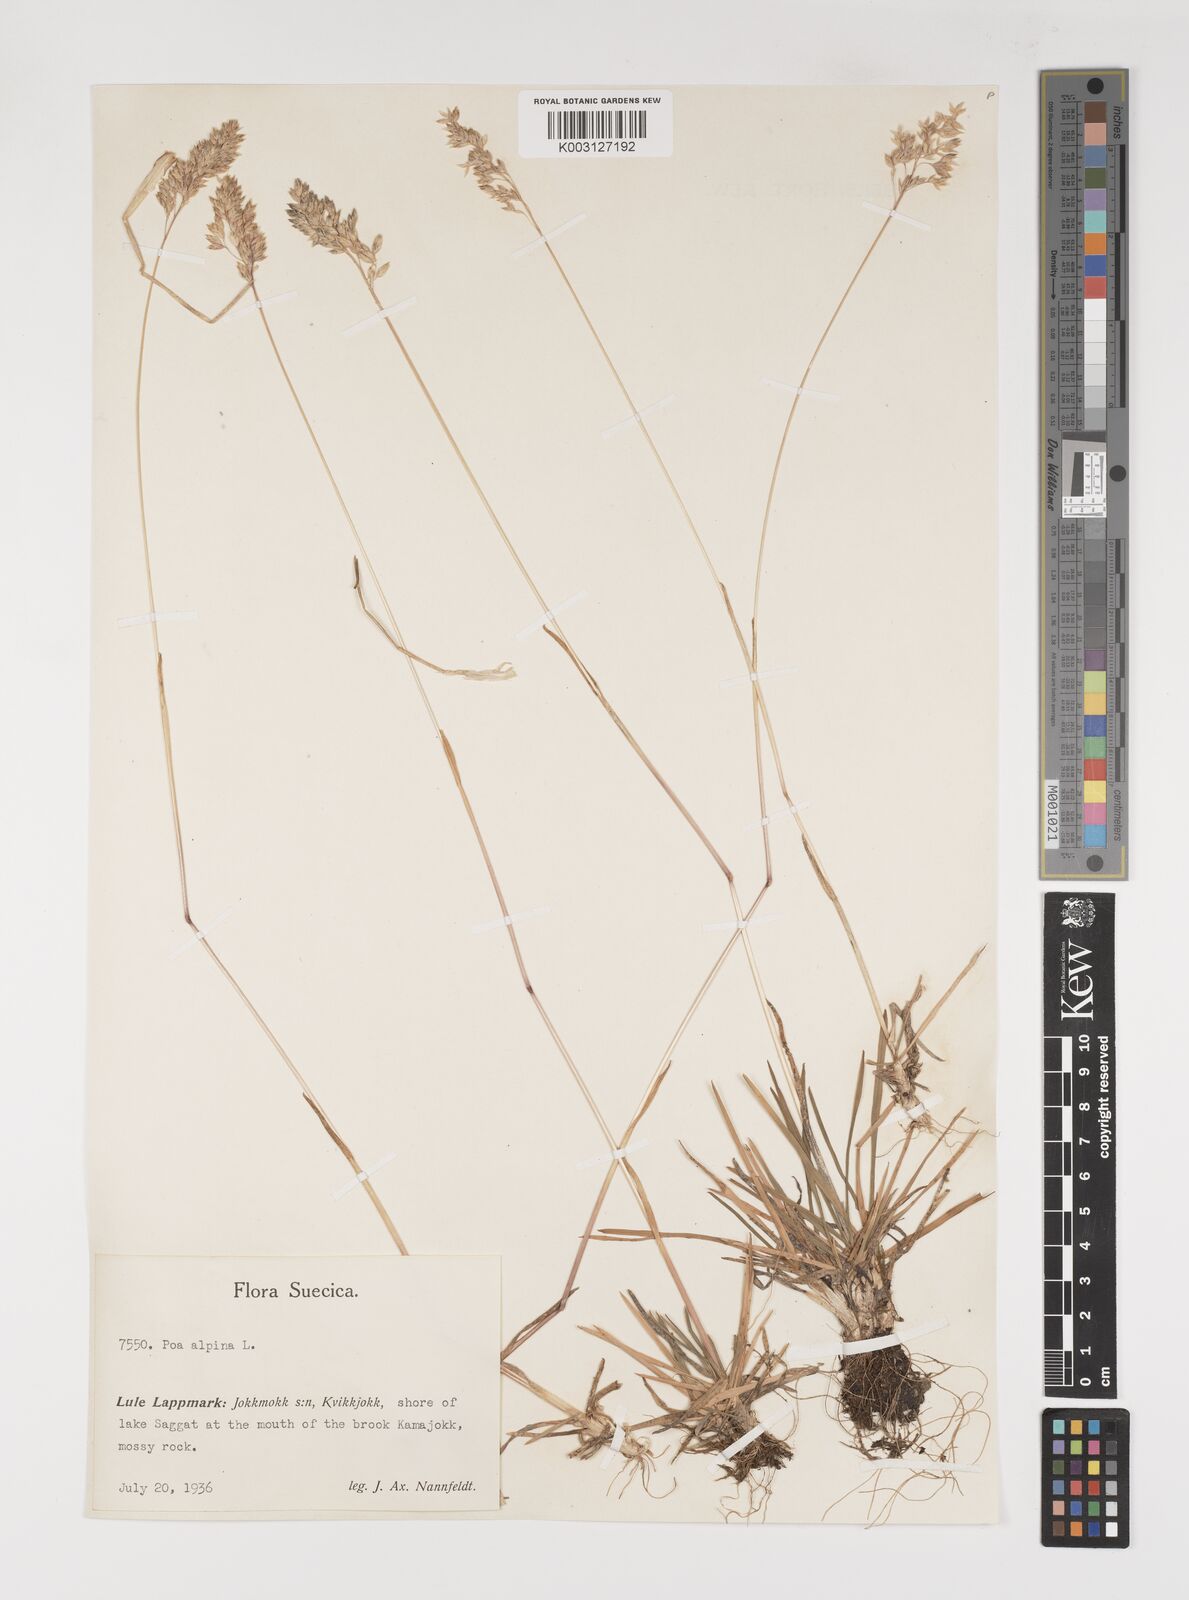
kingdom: Plantae
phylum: Tracheophyta
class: Liliopsida
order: Poales
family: Poaceae
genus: Poa
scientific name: Poa alpina
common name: Alpine bluegrass
